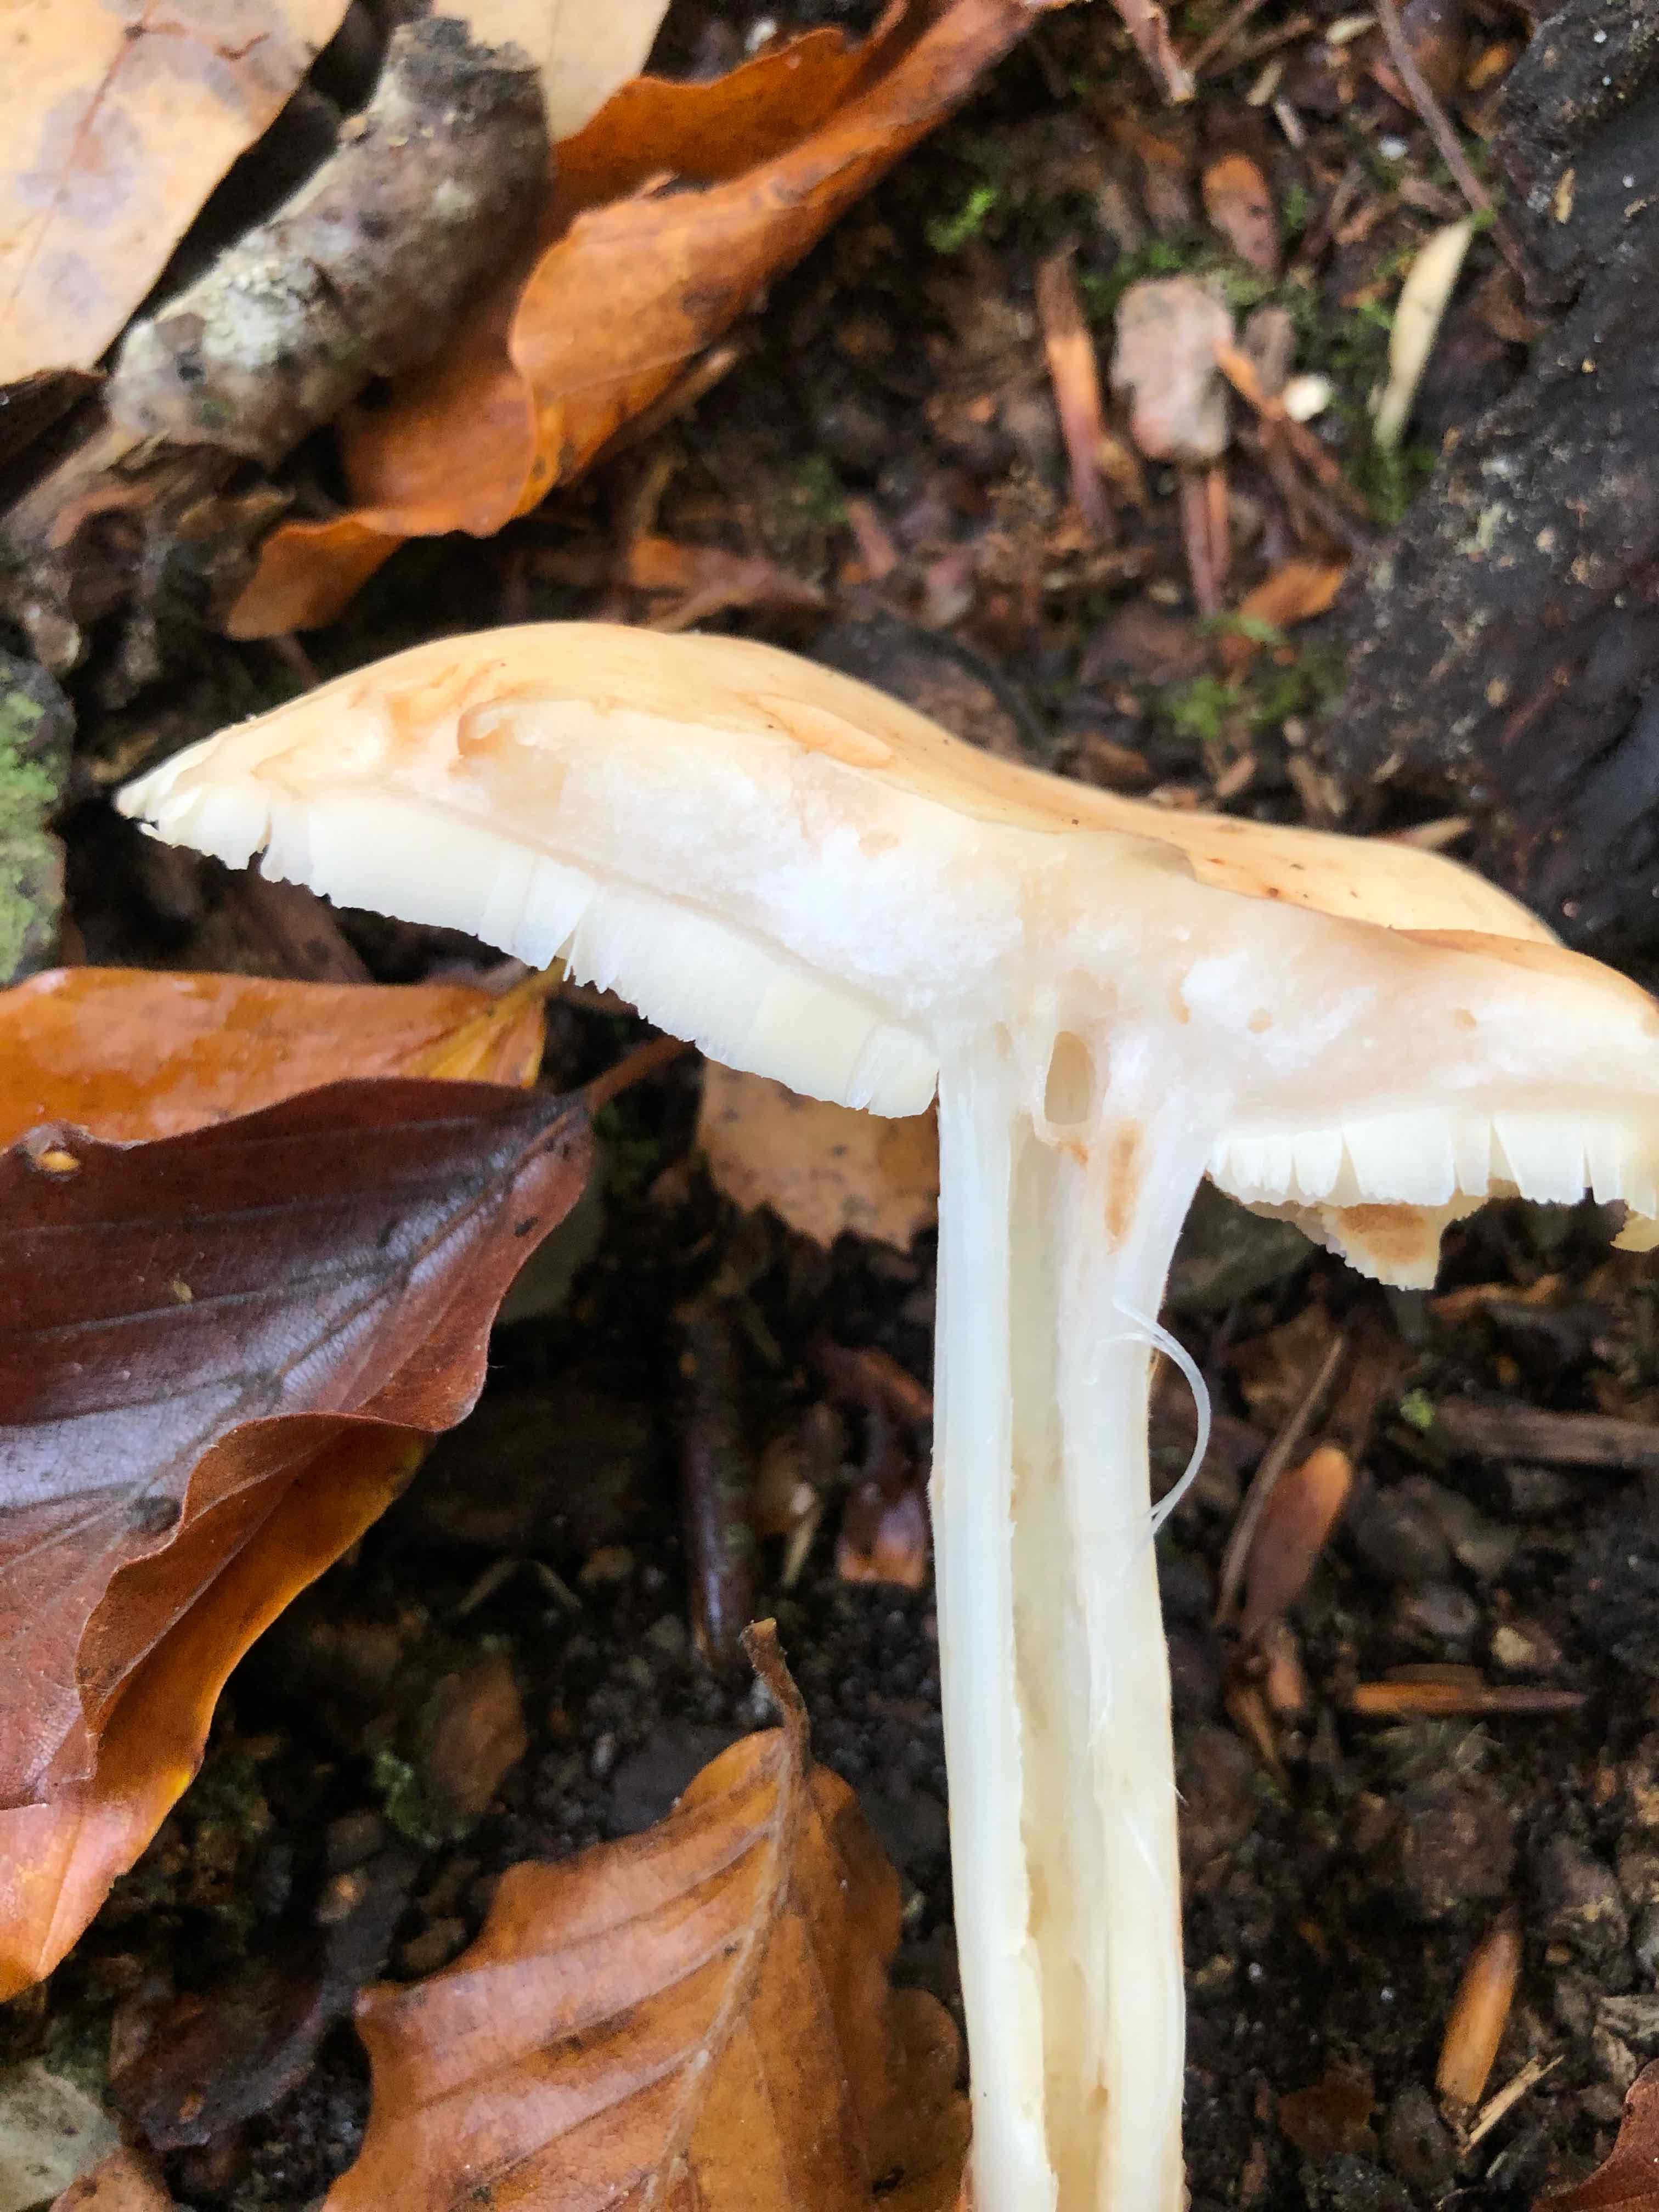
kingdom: Fungi
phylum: Basidiomycota
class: Agaricomycetes
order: Agaricales
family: Omphalotaceae
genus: Rhodocollybia
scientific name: Rhodocollybia maculata
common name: plettet fladhat
